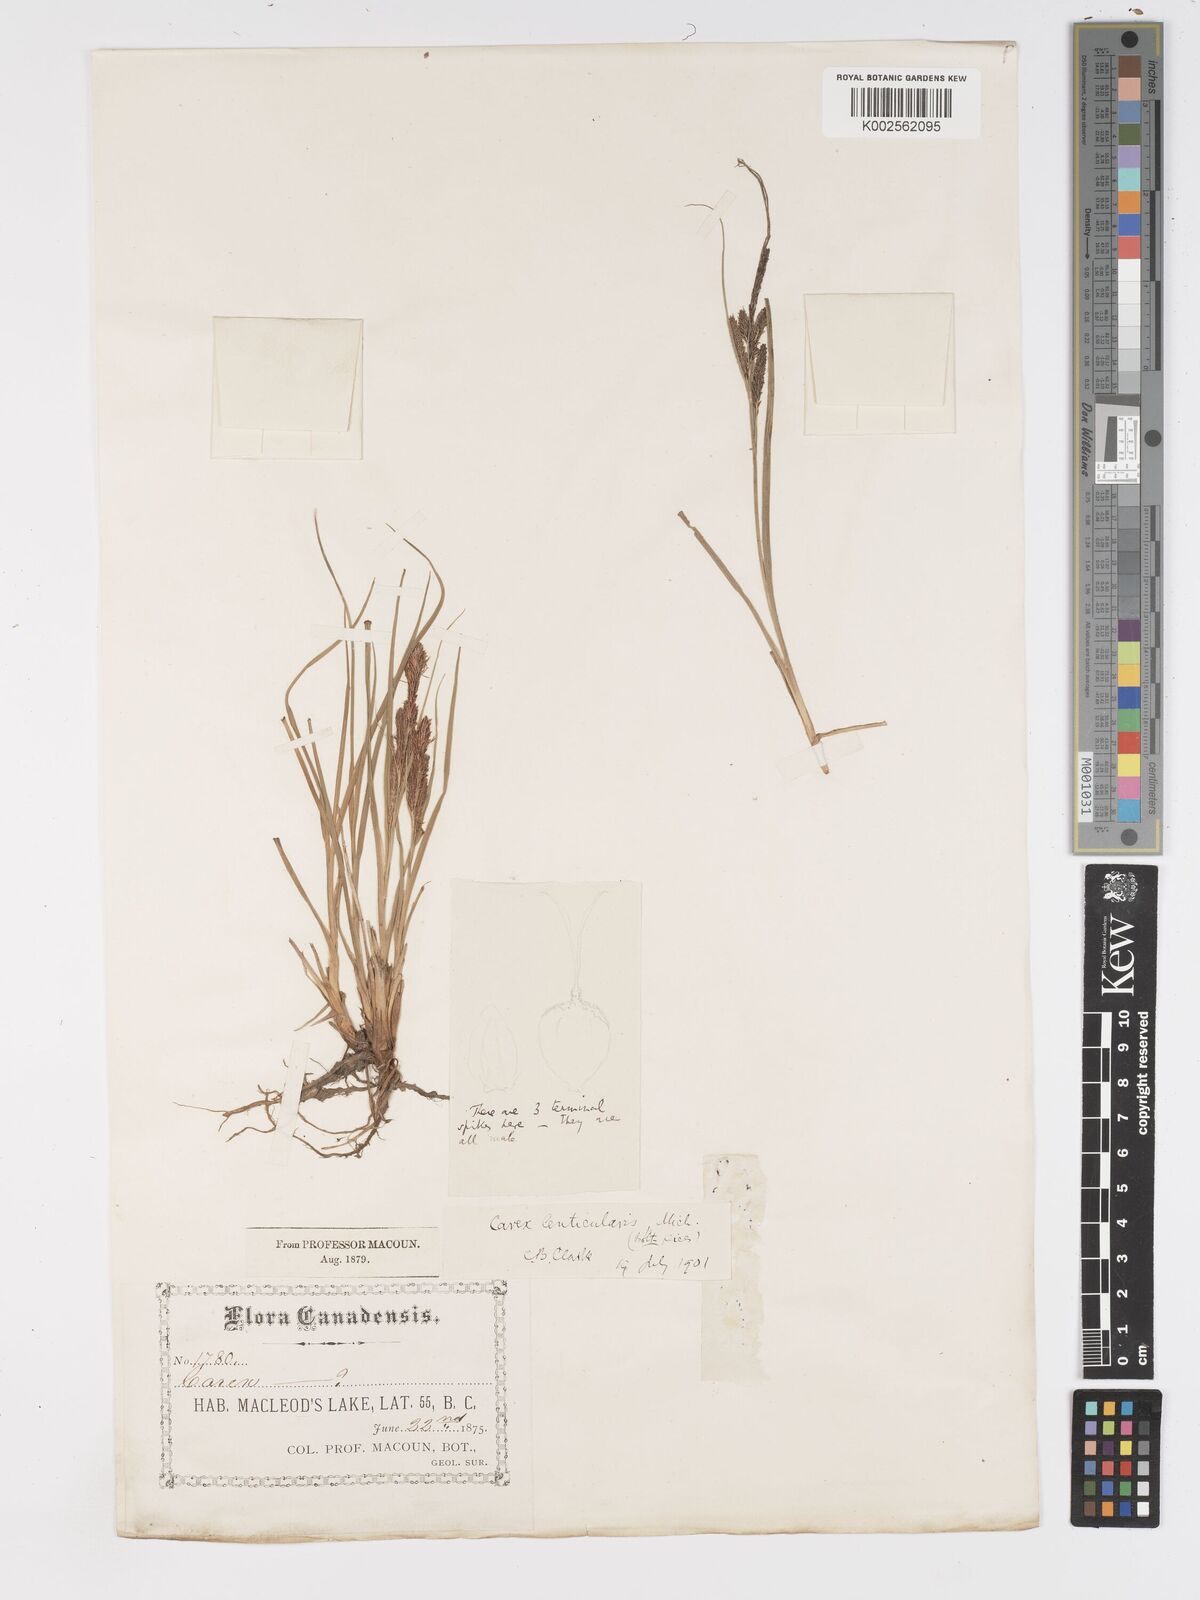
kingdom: Plantae
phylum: Tracheophyta
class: Liliopsida
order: Poales
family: Cyperaceae
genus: Carex
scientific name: Carex lenticularis
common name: Lakeshore sedge
